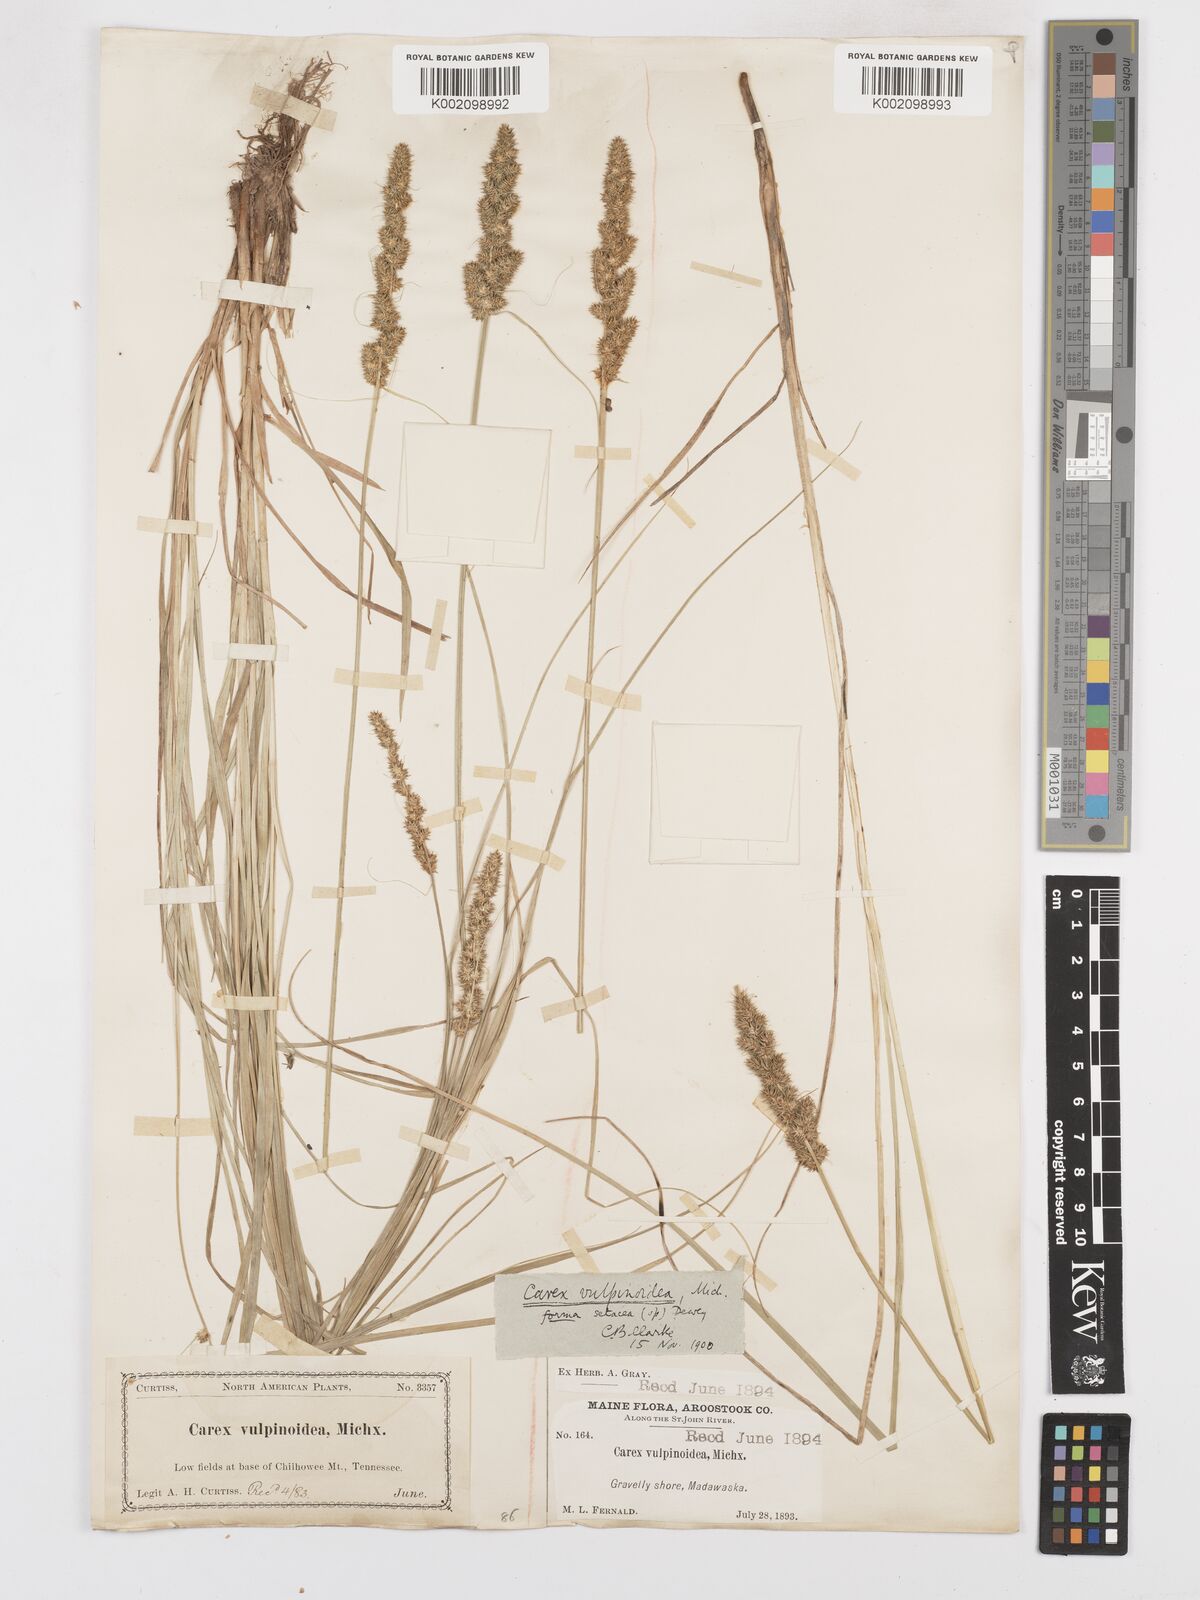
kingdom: Plantae
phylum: Tracheophyta
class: Liliopsida
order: Poales
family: Cyperaceae
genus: Carex
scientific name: Carex vulpinoidea
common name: American fox-sedge
